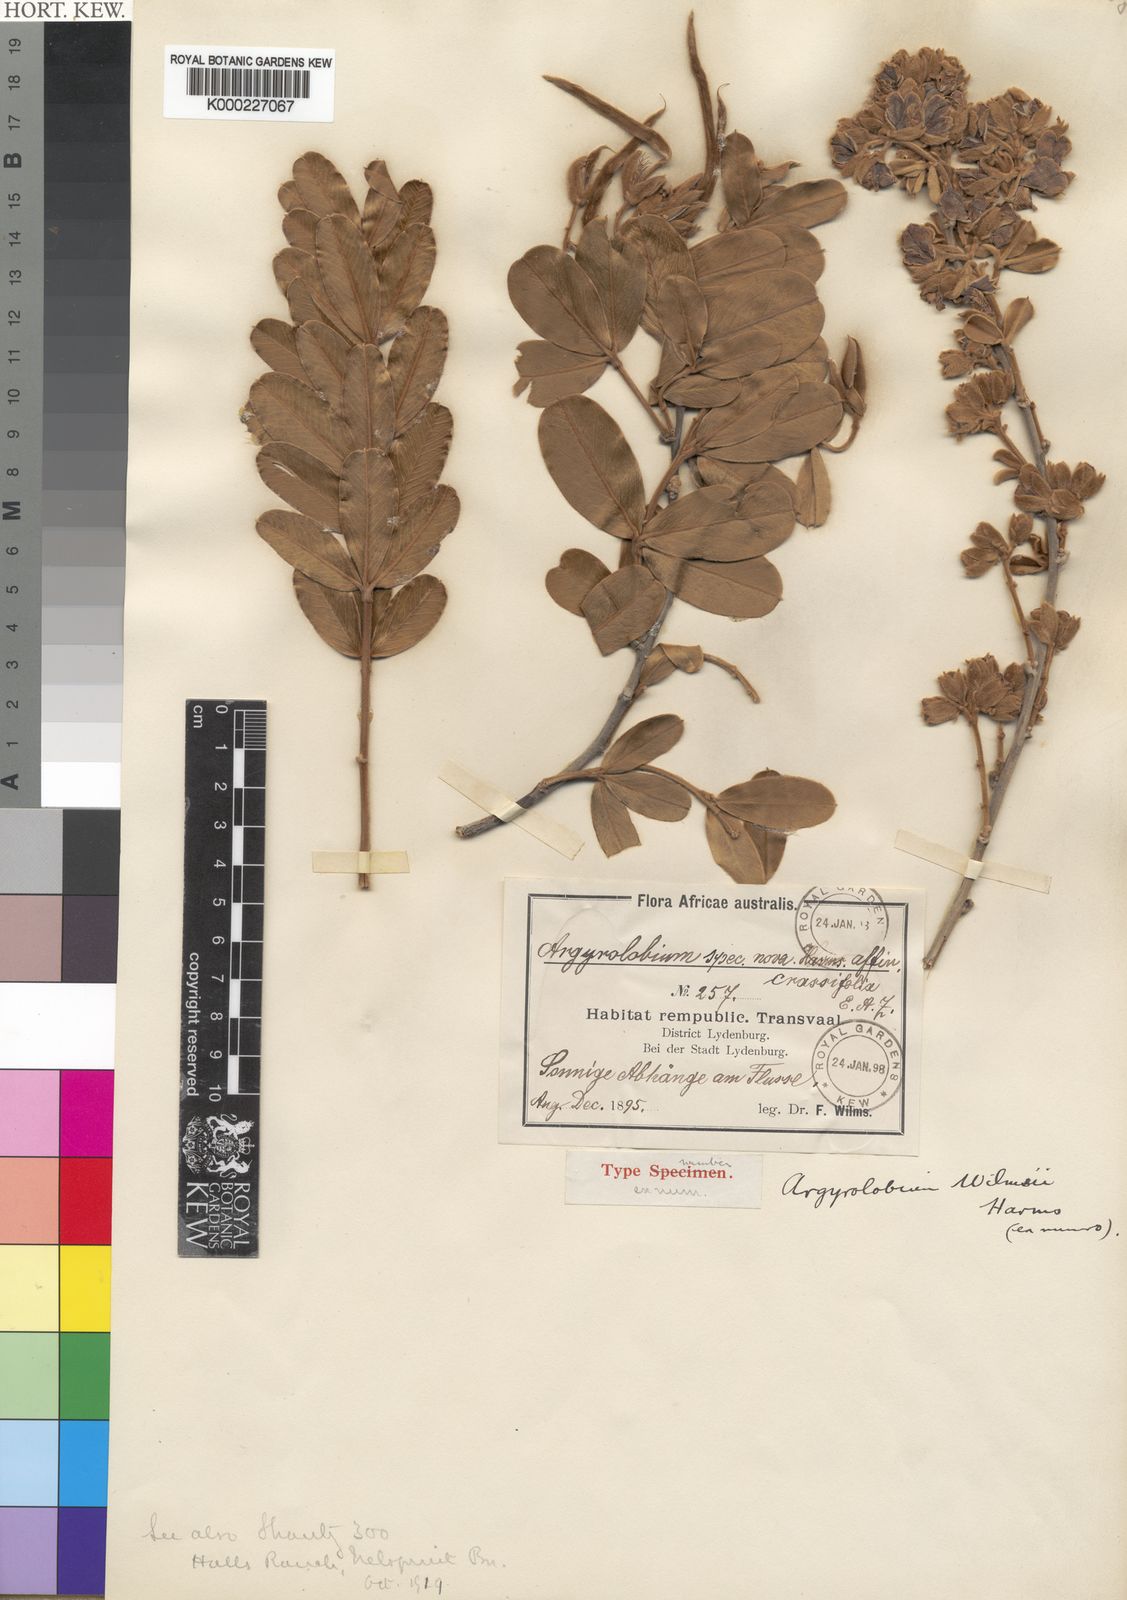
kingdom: Plantae
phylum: Tracheophyta
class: Magnoliopsida
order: Fabales
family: Fabaceae
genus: Argyrolobium
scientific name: Argyrolobium wilmsii
